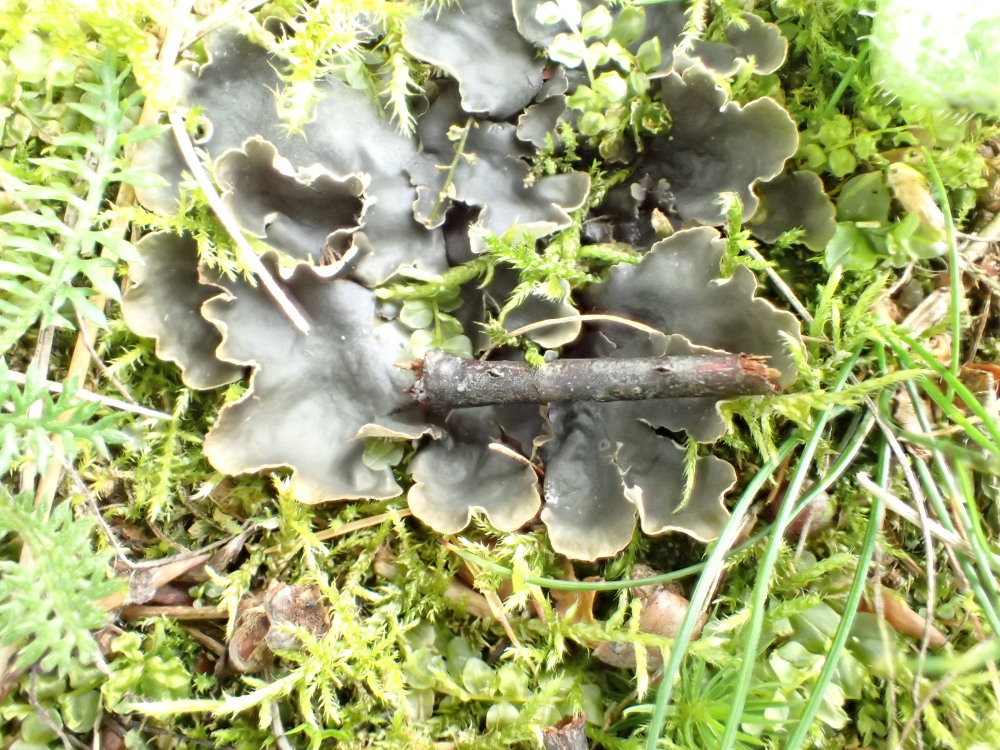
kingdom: Fungi
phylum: Ascomycota
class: Lecanoromycetes
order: Peltigerales
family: Peltigeraceae
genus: Peltigera
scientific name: Peltigera hymenina
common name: hinde-skjoldlav
